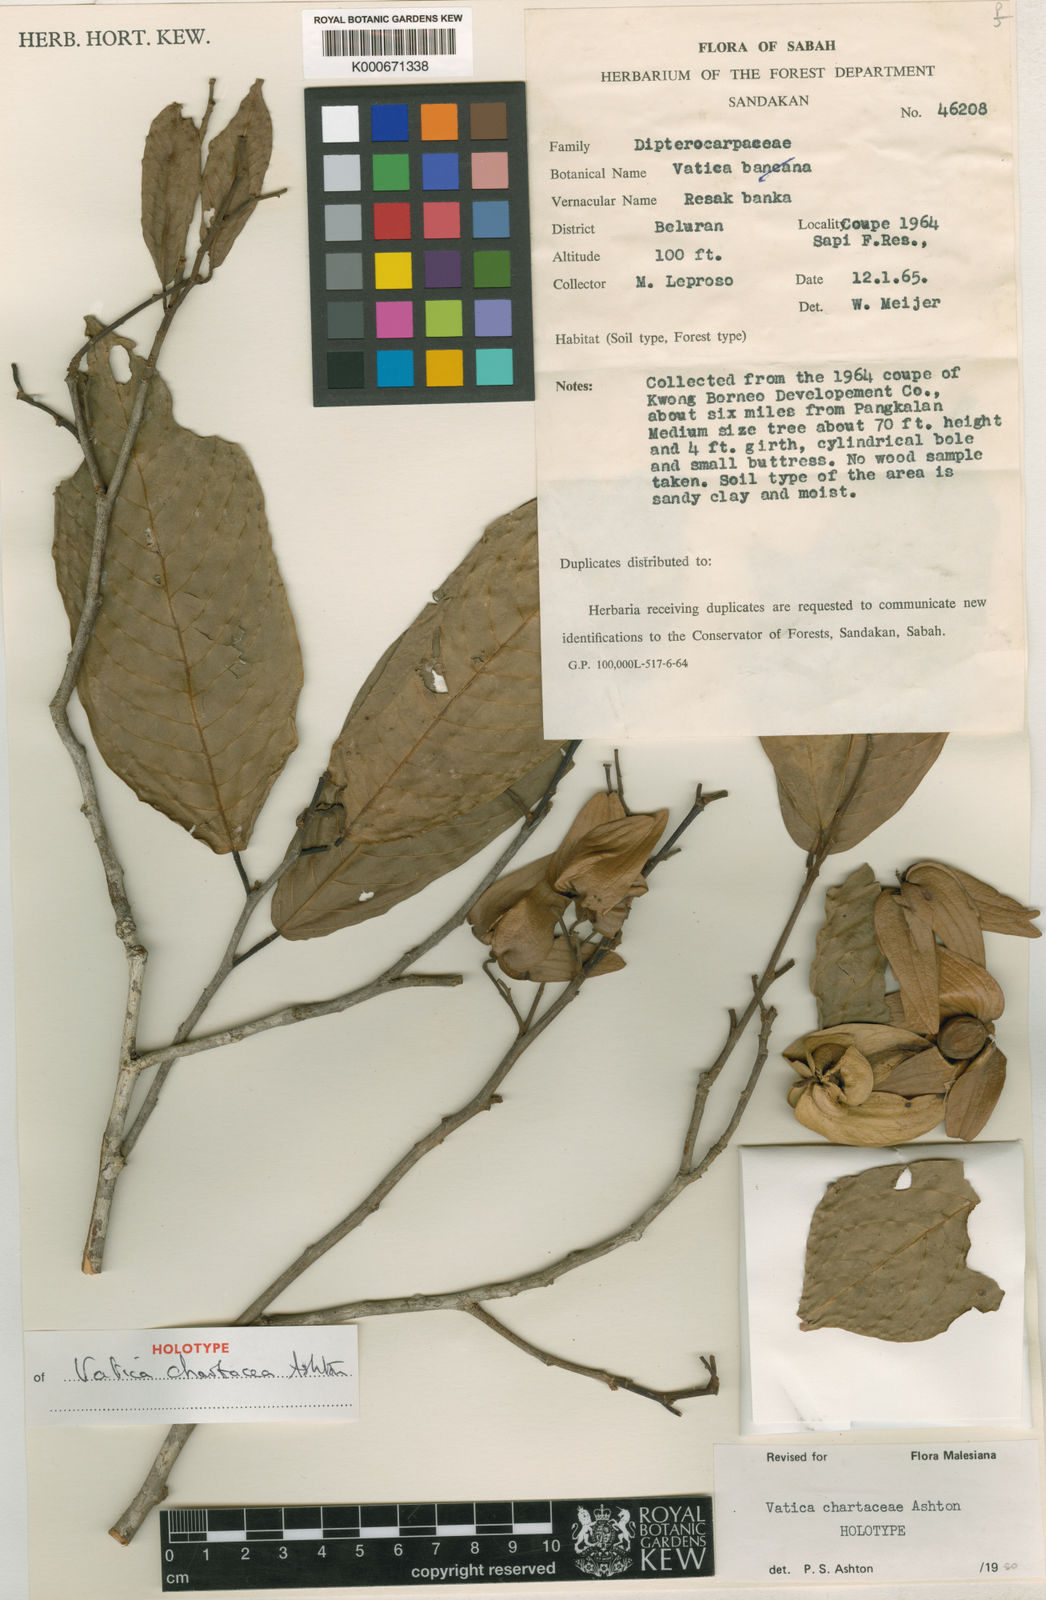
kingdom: Plantae
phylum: Tracheophyta
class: Magnoliopsida
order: Malvales
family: Dipterocarpaceae
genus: Vatica
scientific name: Vatica chartacea
